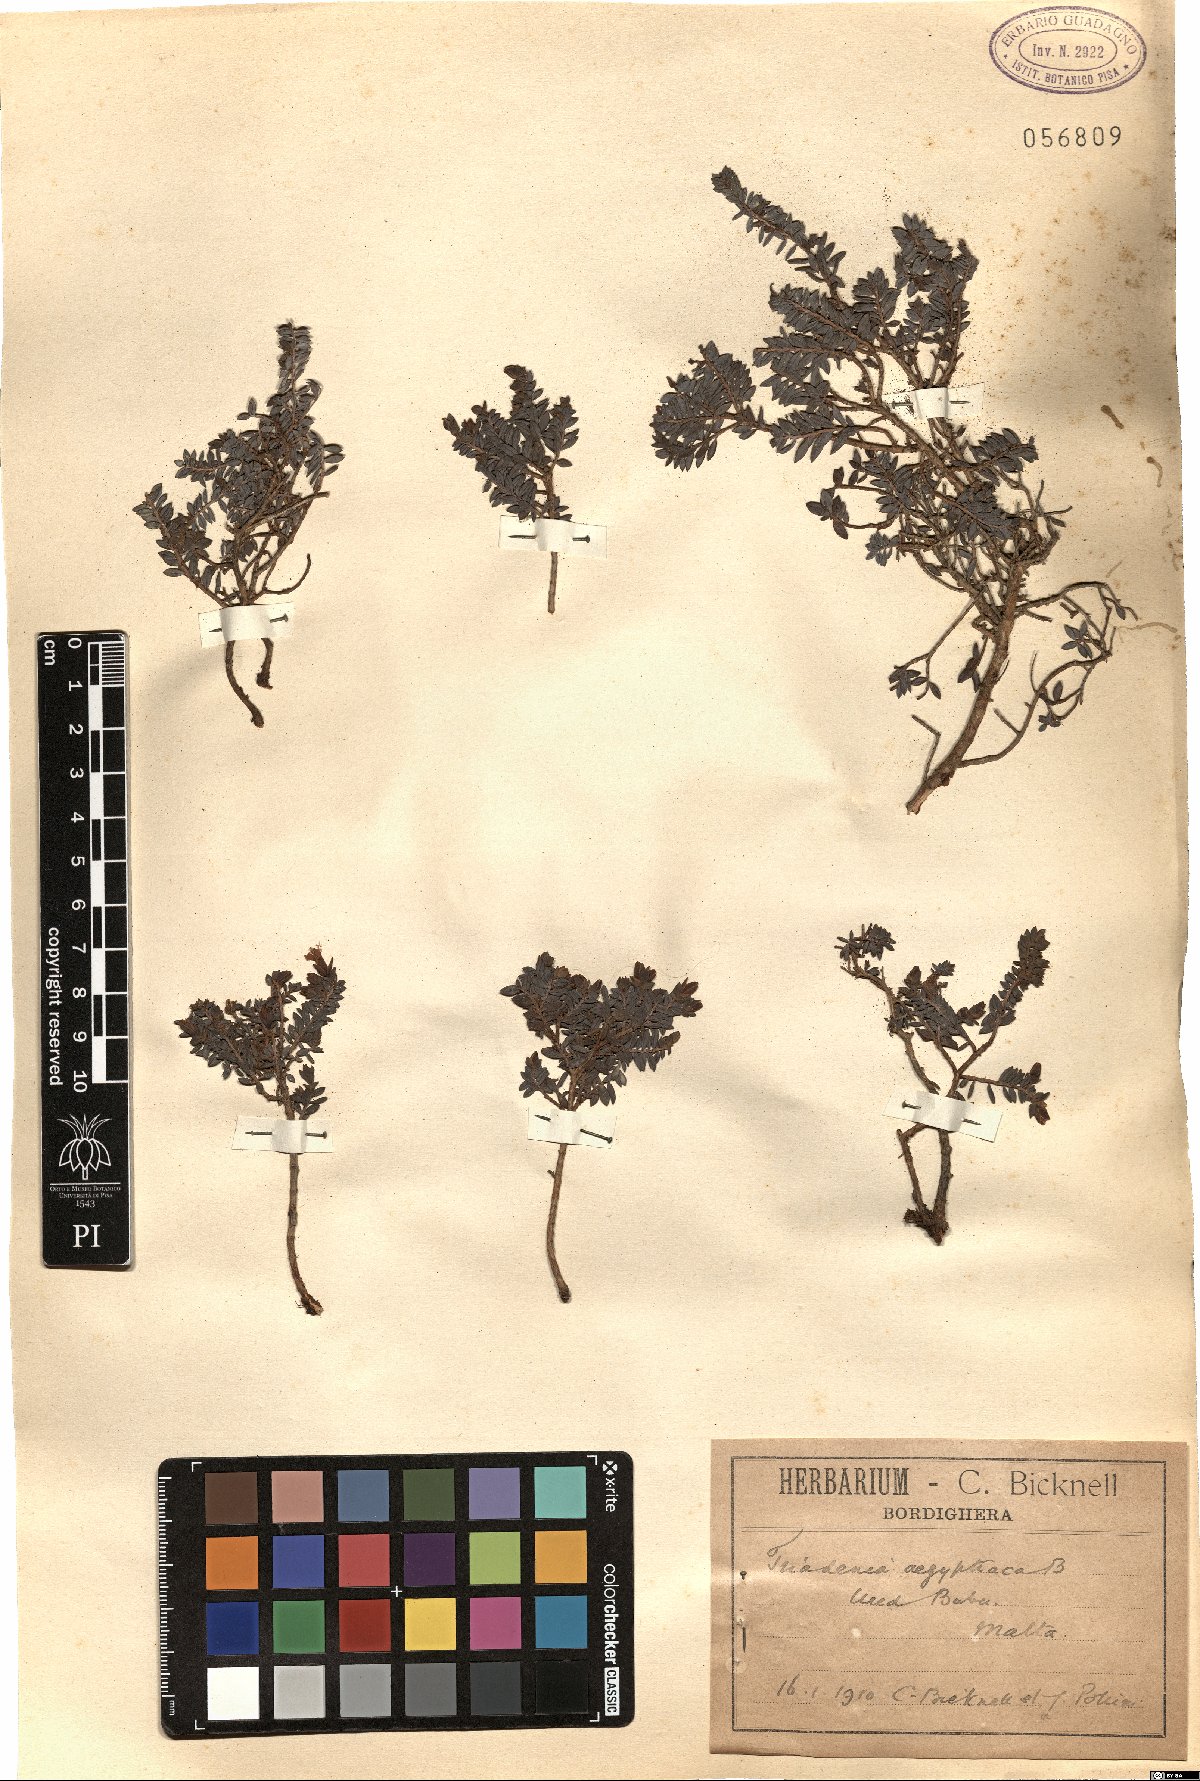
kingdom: Plantae
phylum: Tracheophyta
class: Magnoliopsida
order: Malpighiales
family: Hypericaceae
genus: Hypericum
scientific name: Hypericum aegypticum
